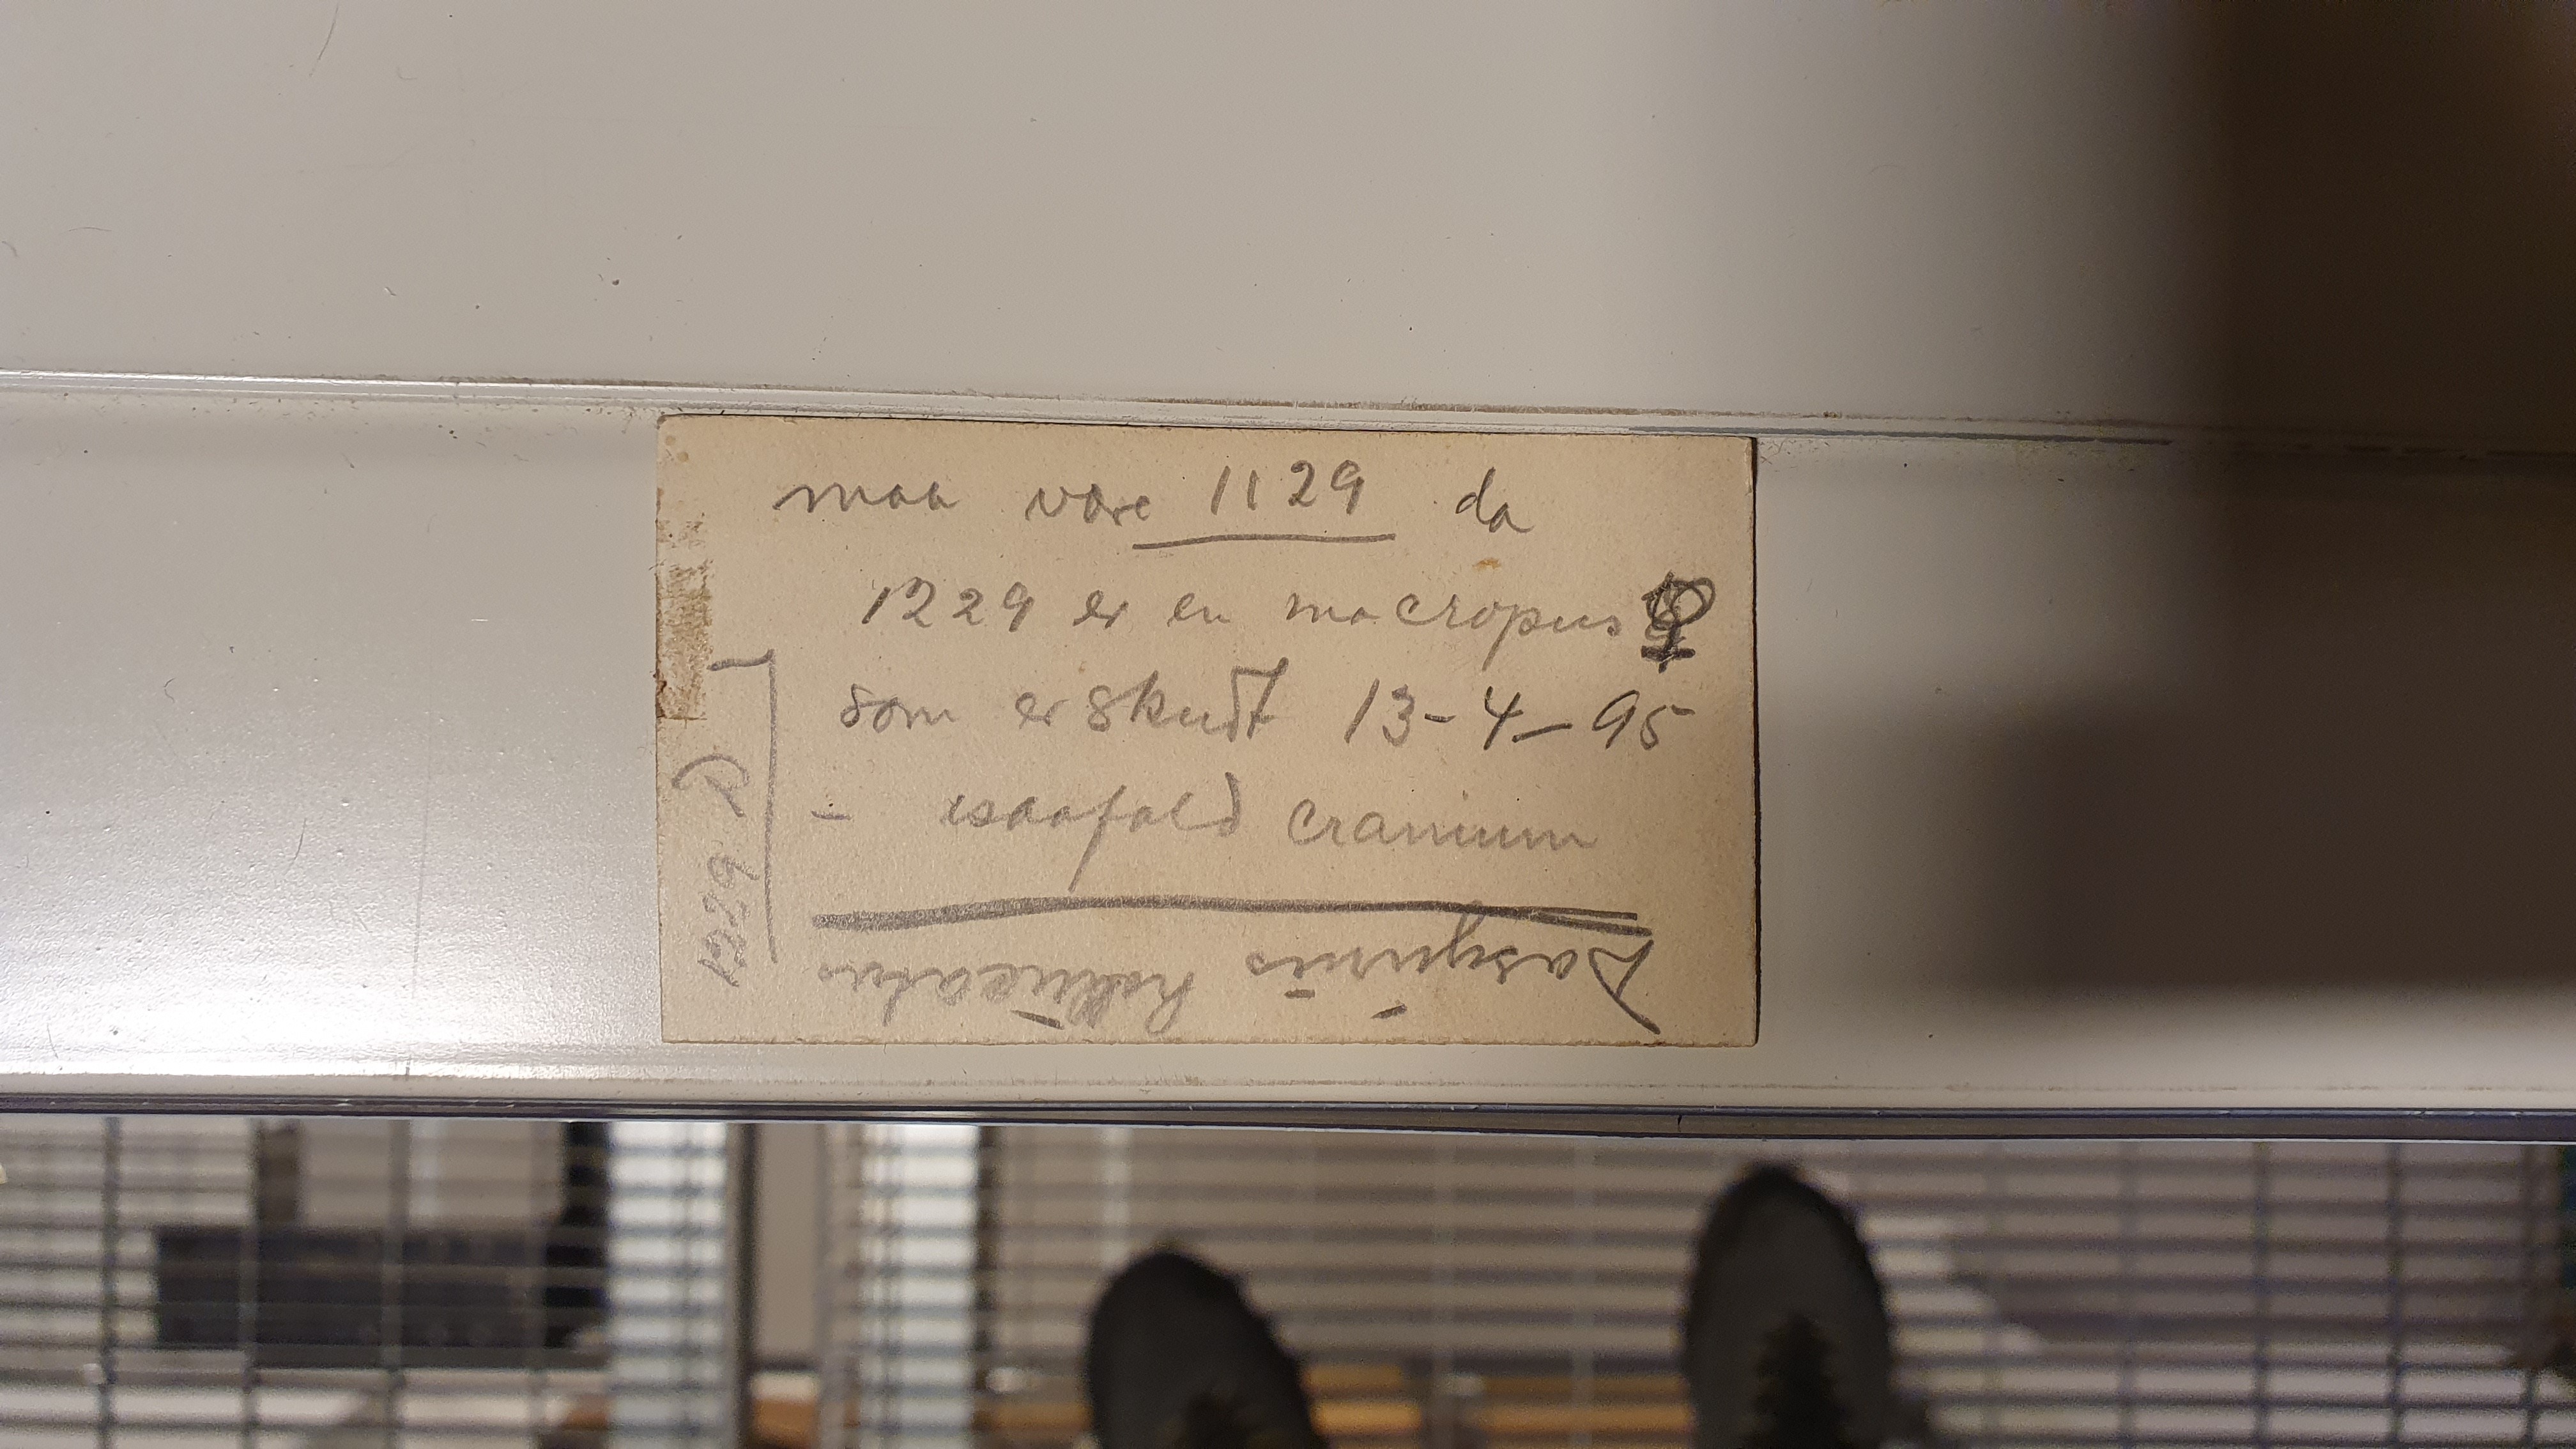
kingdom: Animalia
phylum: Chordata
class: Mammalia
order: Dasyuromorphia
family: Dasyuridae
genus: Dasyurus
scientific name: Dasyurus hallucatus
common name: Northern quoll
